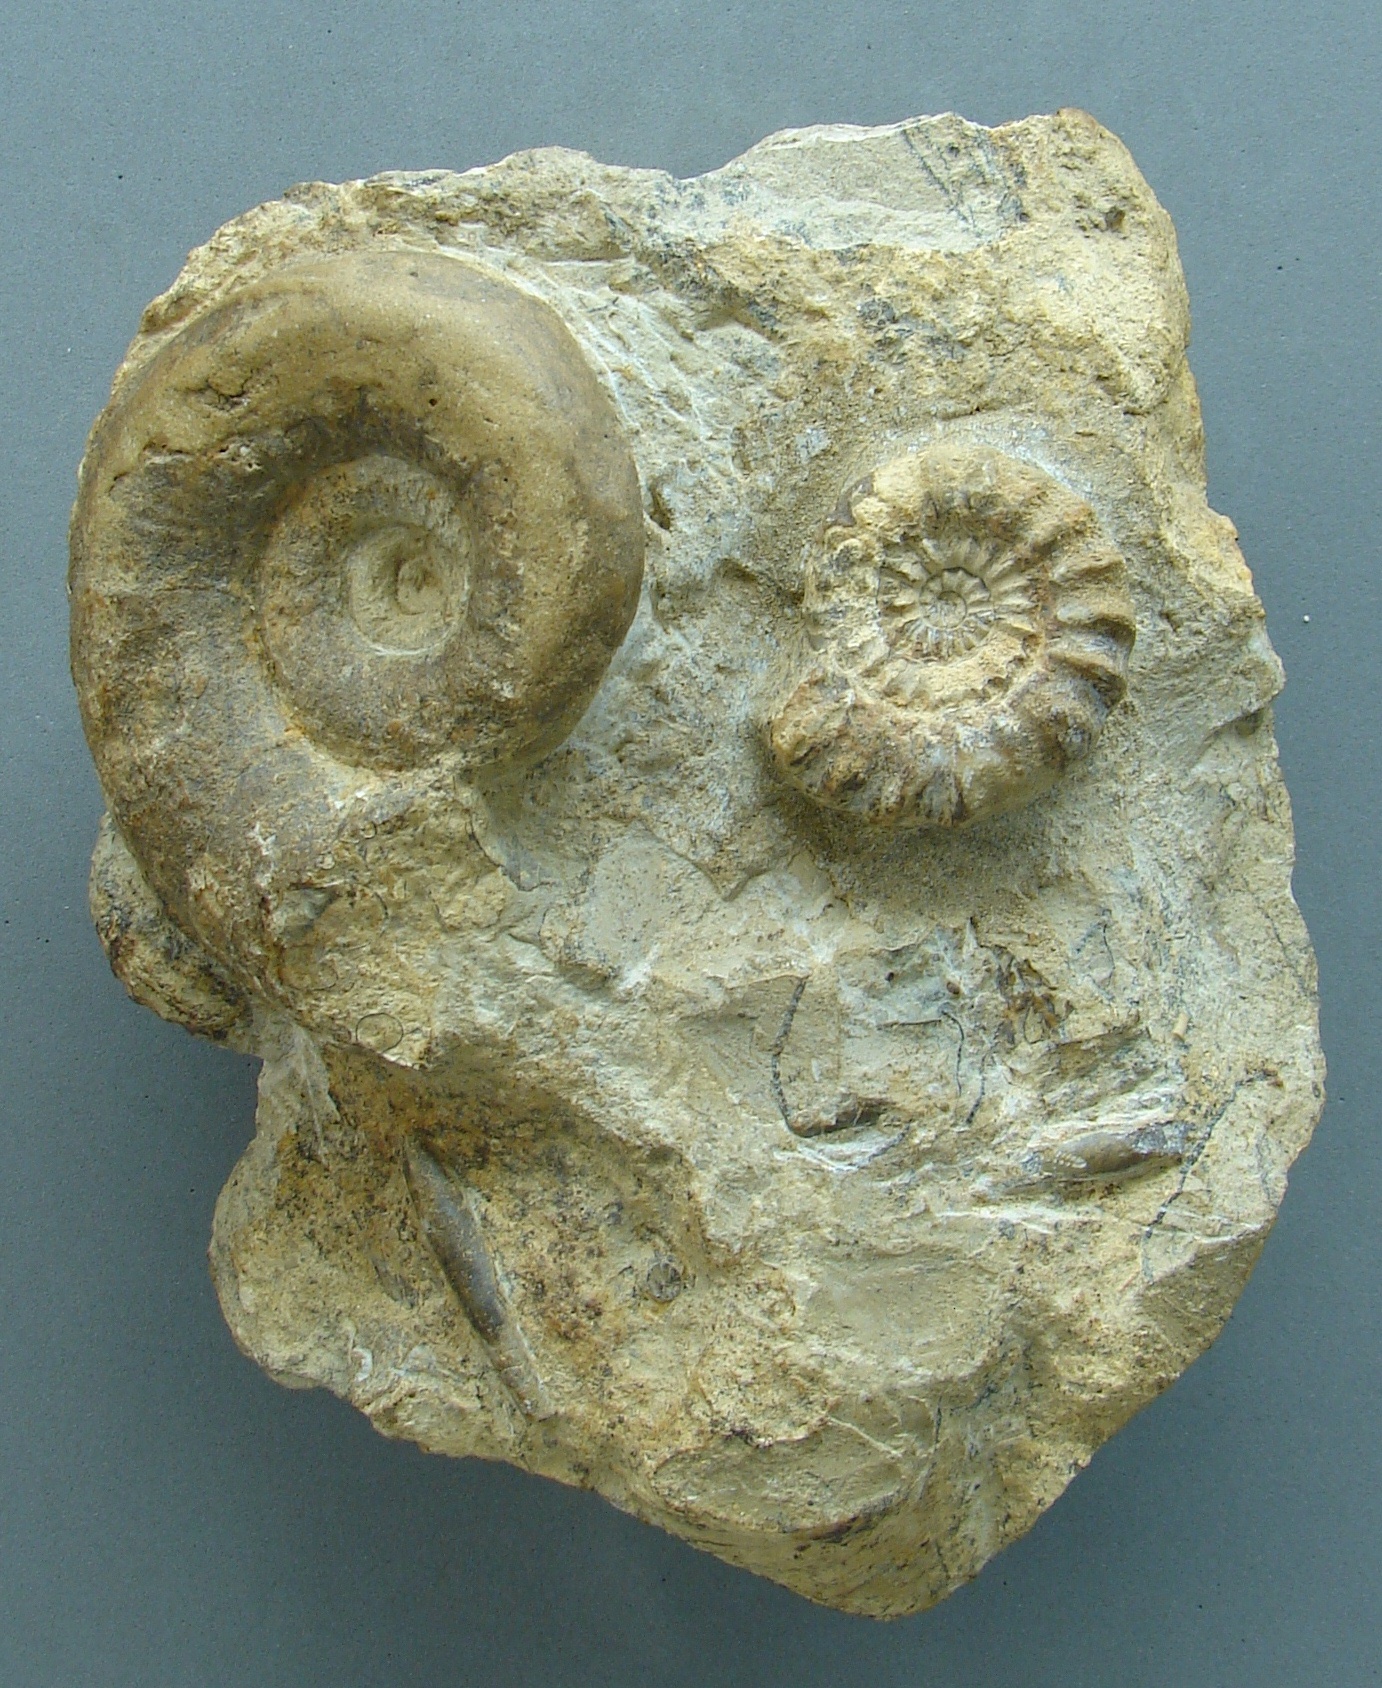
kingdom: Animalia
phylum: Mollusca
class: Cephalopoda
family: Lytoceratidae
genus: Lytoceras
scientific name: Lytoceras
